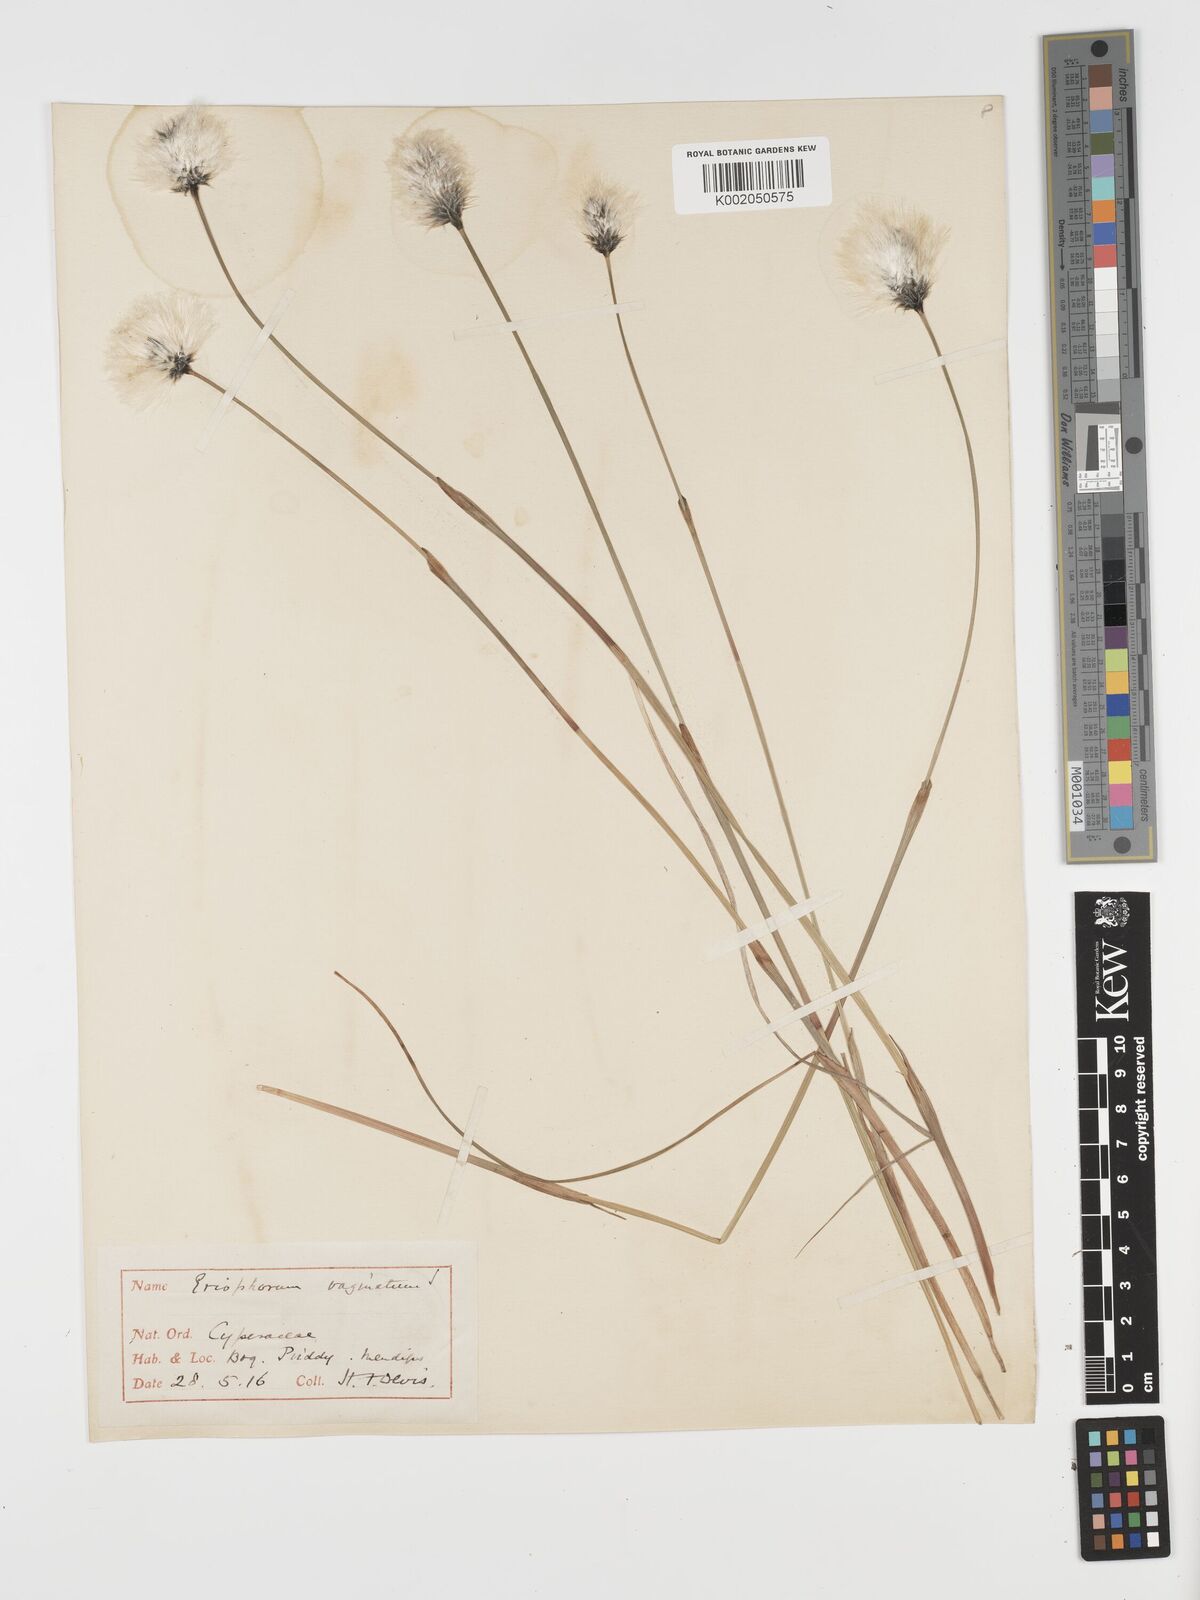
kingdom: Plantae
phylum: Tracheophyta
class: Liliopsida
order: Poales
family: Cyperaceae
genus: Eriophorum
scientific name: Eriophorum vaginatum
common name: Hare's-tail cottongrass
